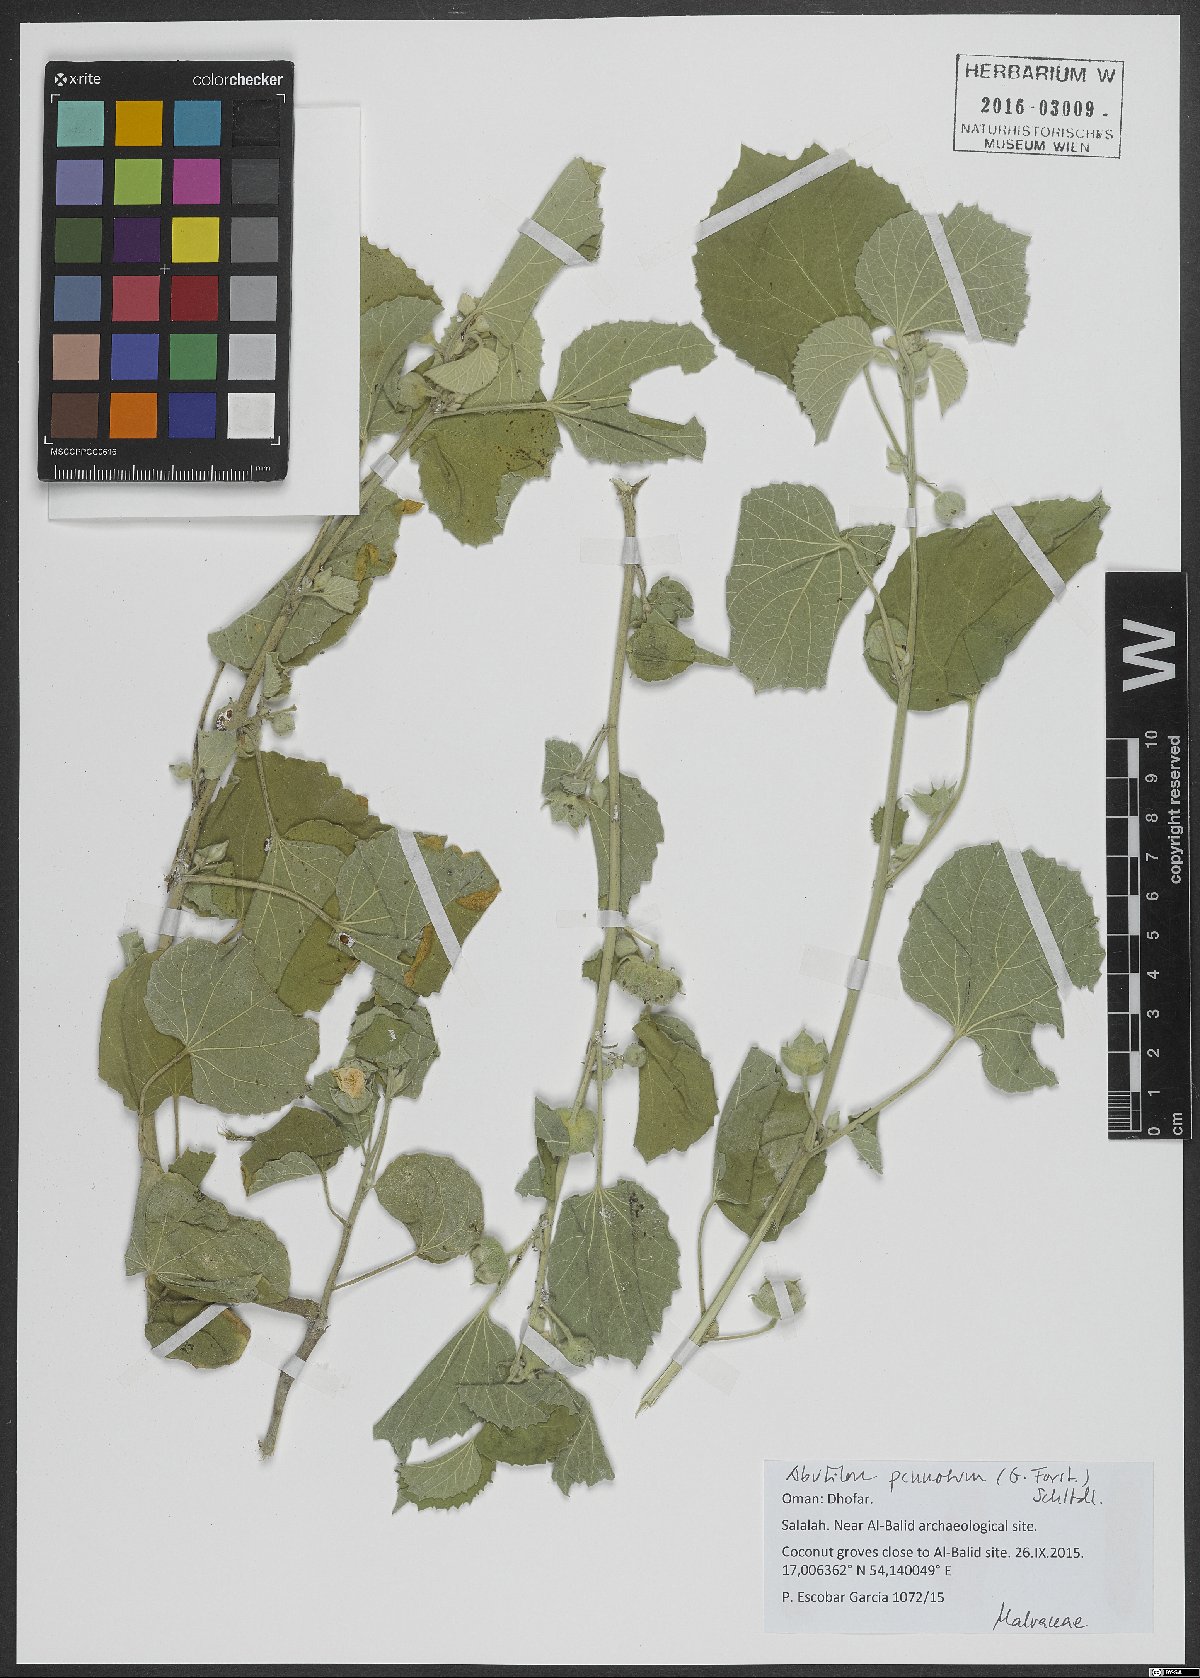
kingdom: Plantae
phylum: Tracheophyta
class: Magnoliopsida
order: Malvales
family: Malvaceae
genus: Abutilon
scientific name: Abutilon pannosum
